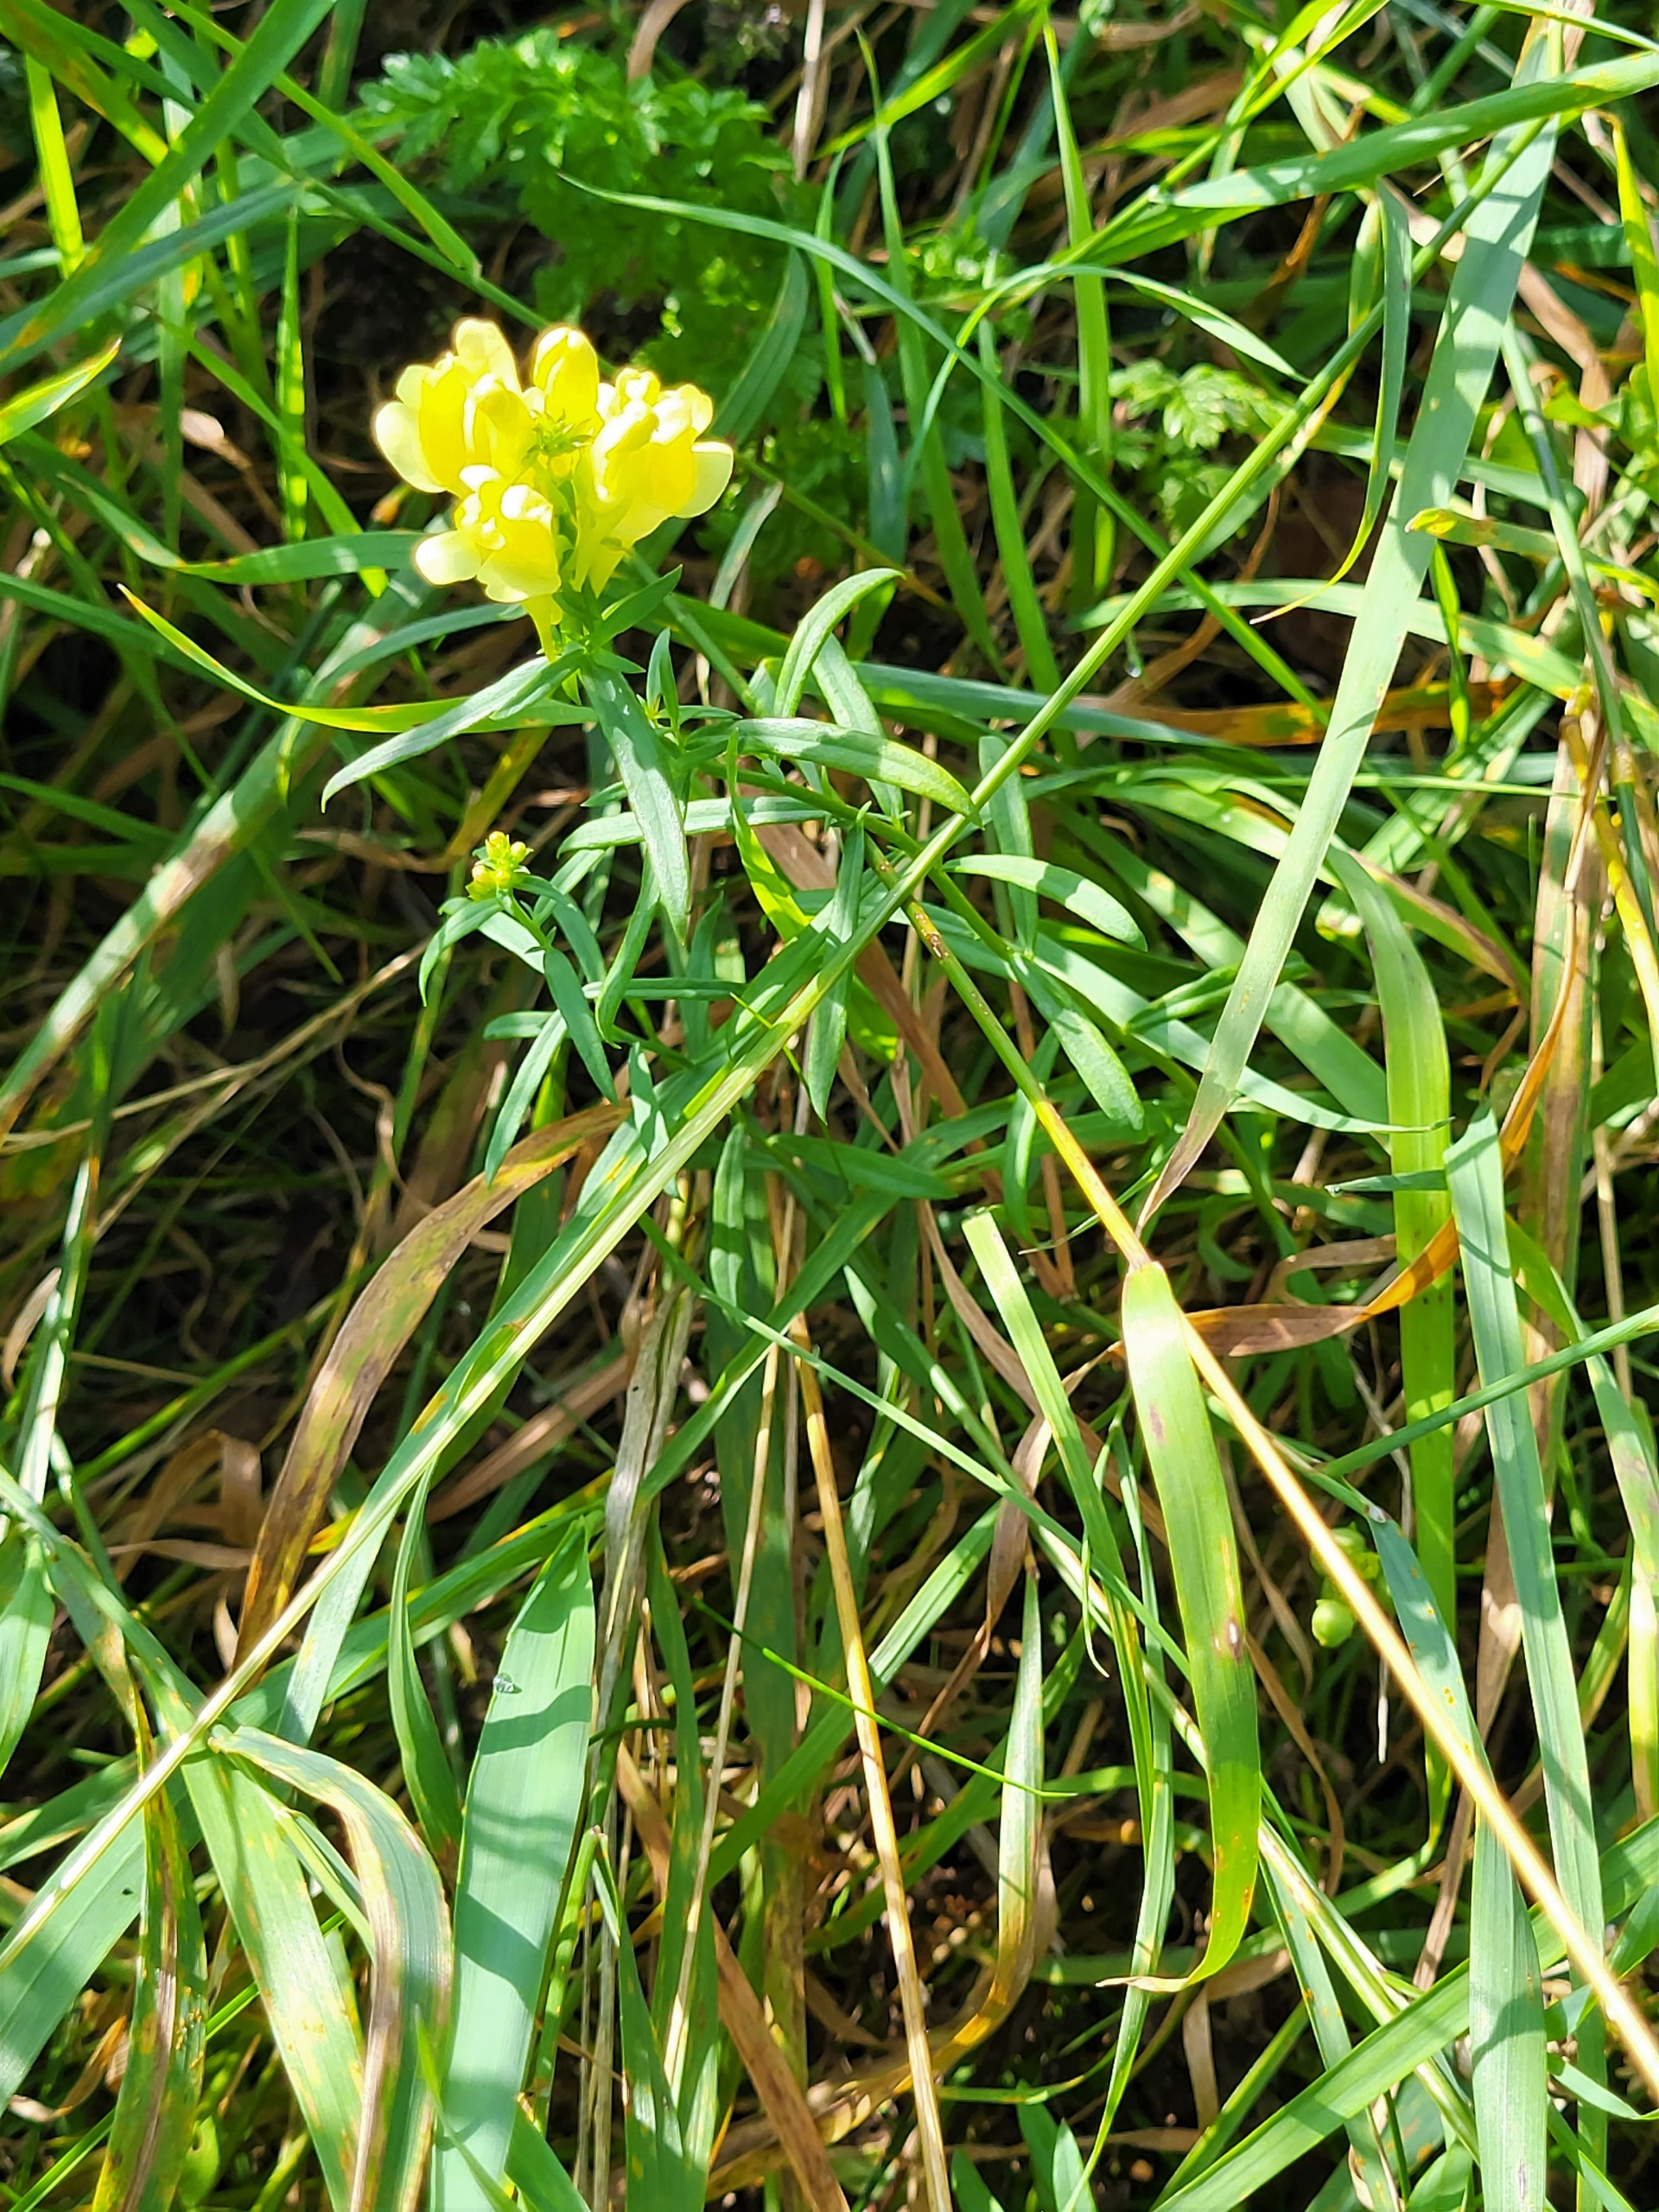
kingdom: Plantae
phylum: Tracheophyta
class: Magnoliopsida
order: Lamiales
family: Plantaginaceae
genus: Linaria
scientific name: Linaria vulgaris
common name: Almindelig torskemund
